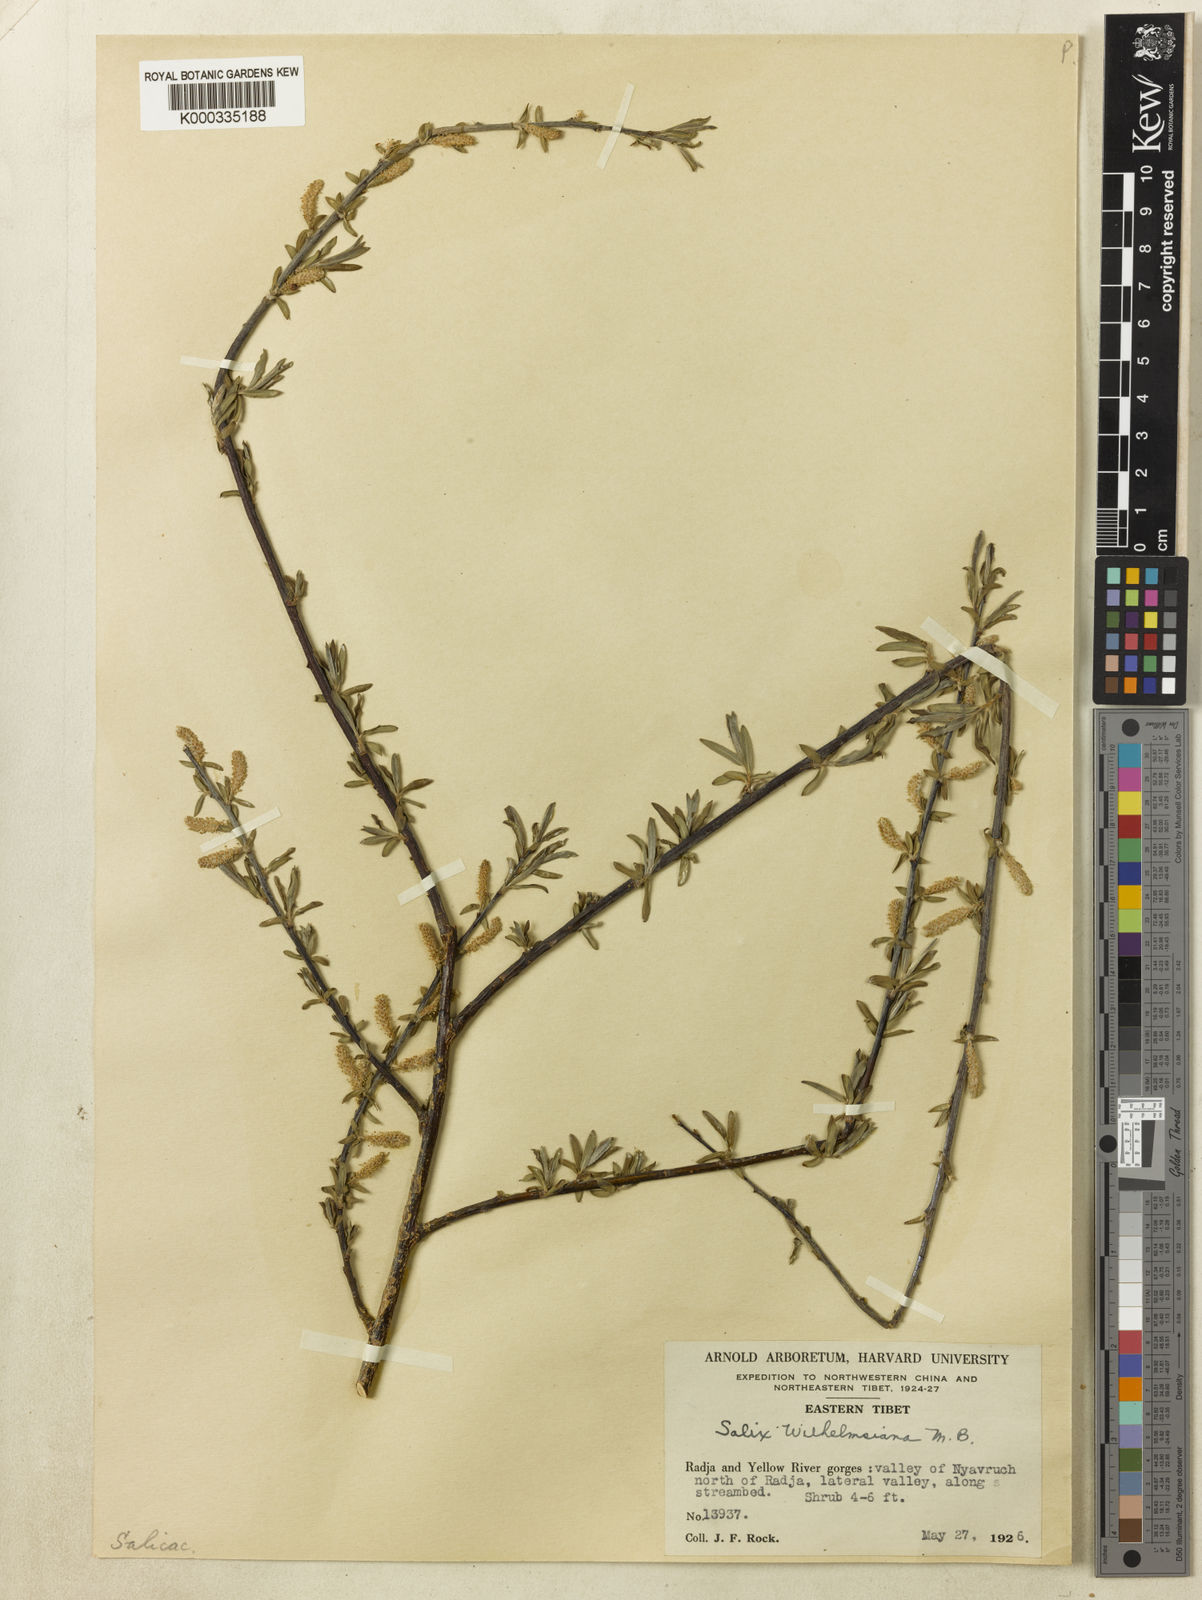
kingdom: Plantae
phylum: Tracheophyta
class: Magnoliopsida
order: Malpighiales
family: Salicaceae
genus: Salix
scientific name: Salix wilhelmsiana
